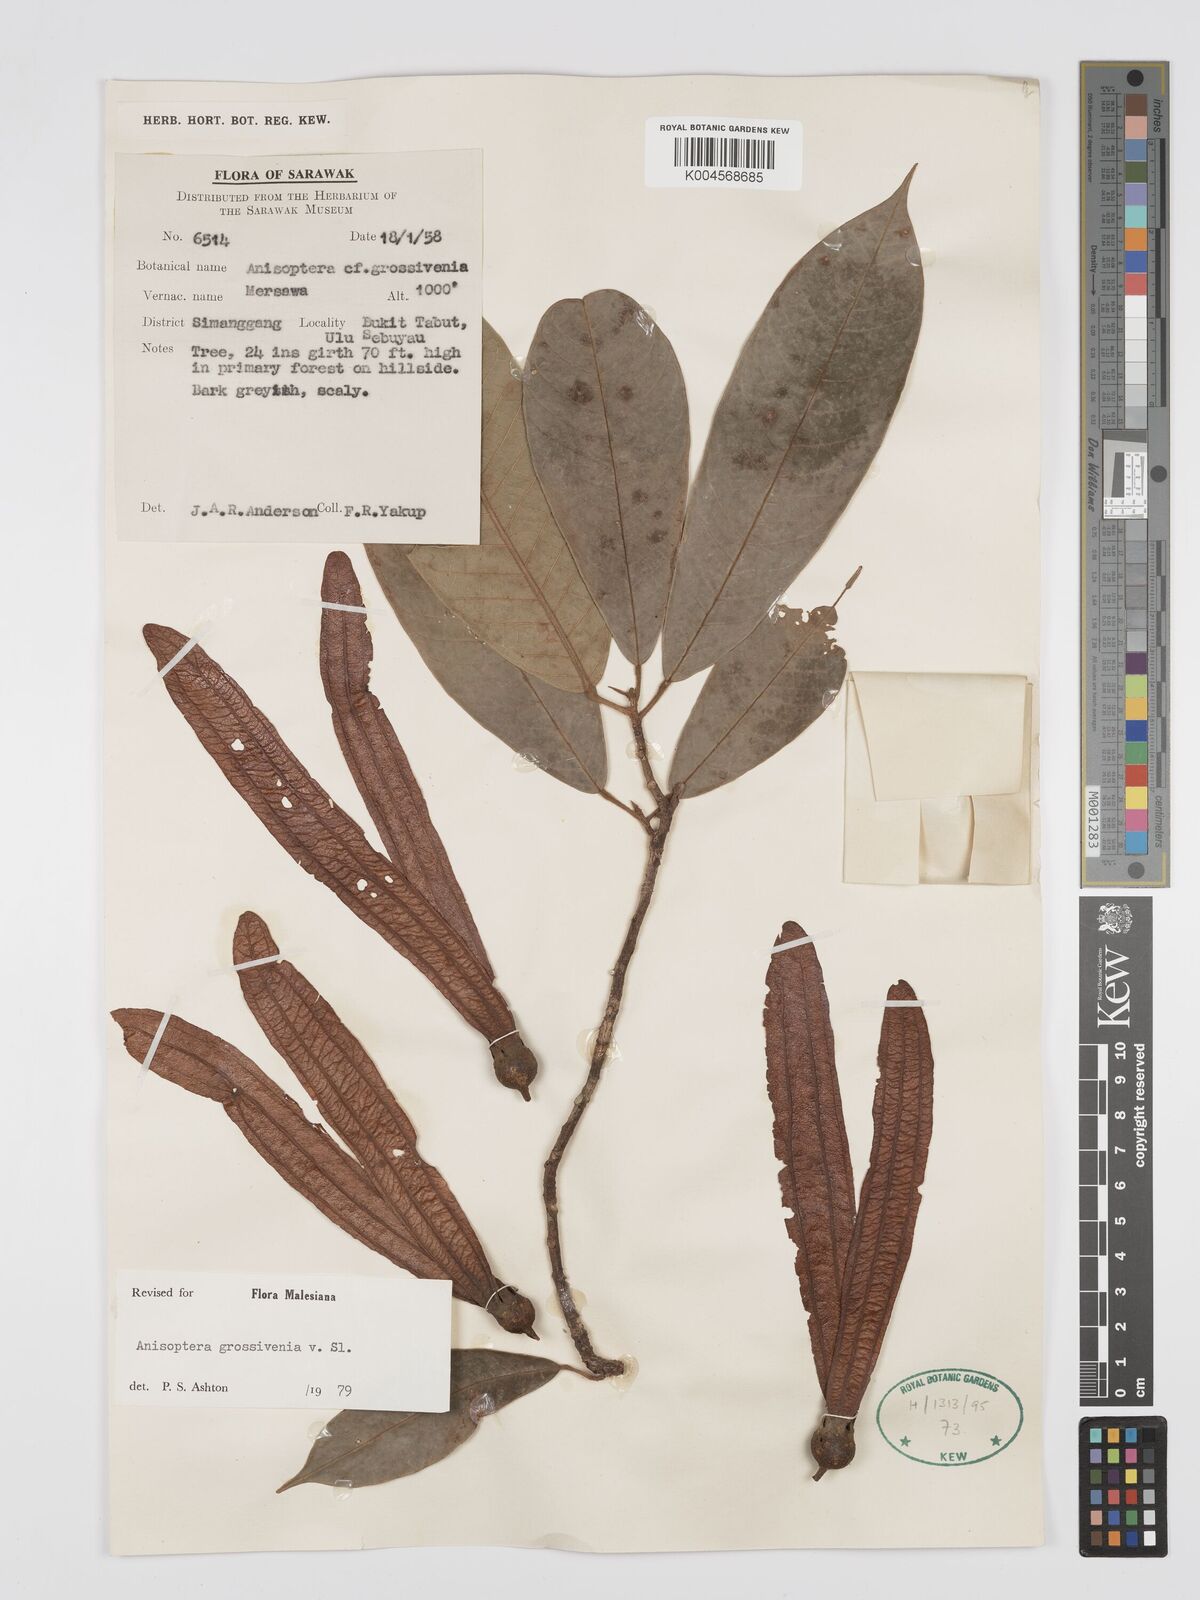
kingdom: Plantae
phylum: Tracheophyta
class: Magnoliopsida
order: Malvales
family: Dipterocarpaceae
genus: Anisoptera
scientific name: Anisoptera grossivenia
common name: Krabak
